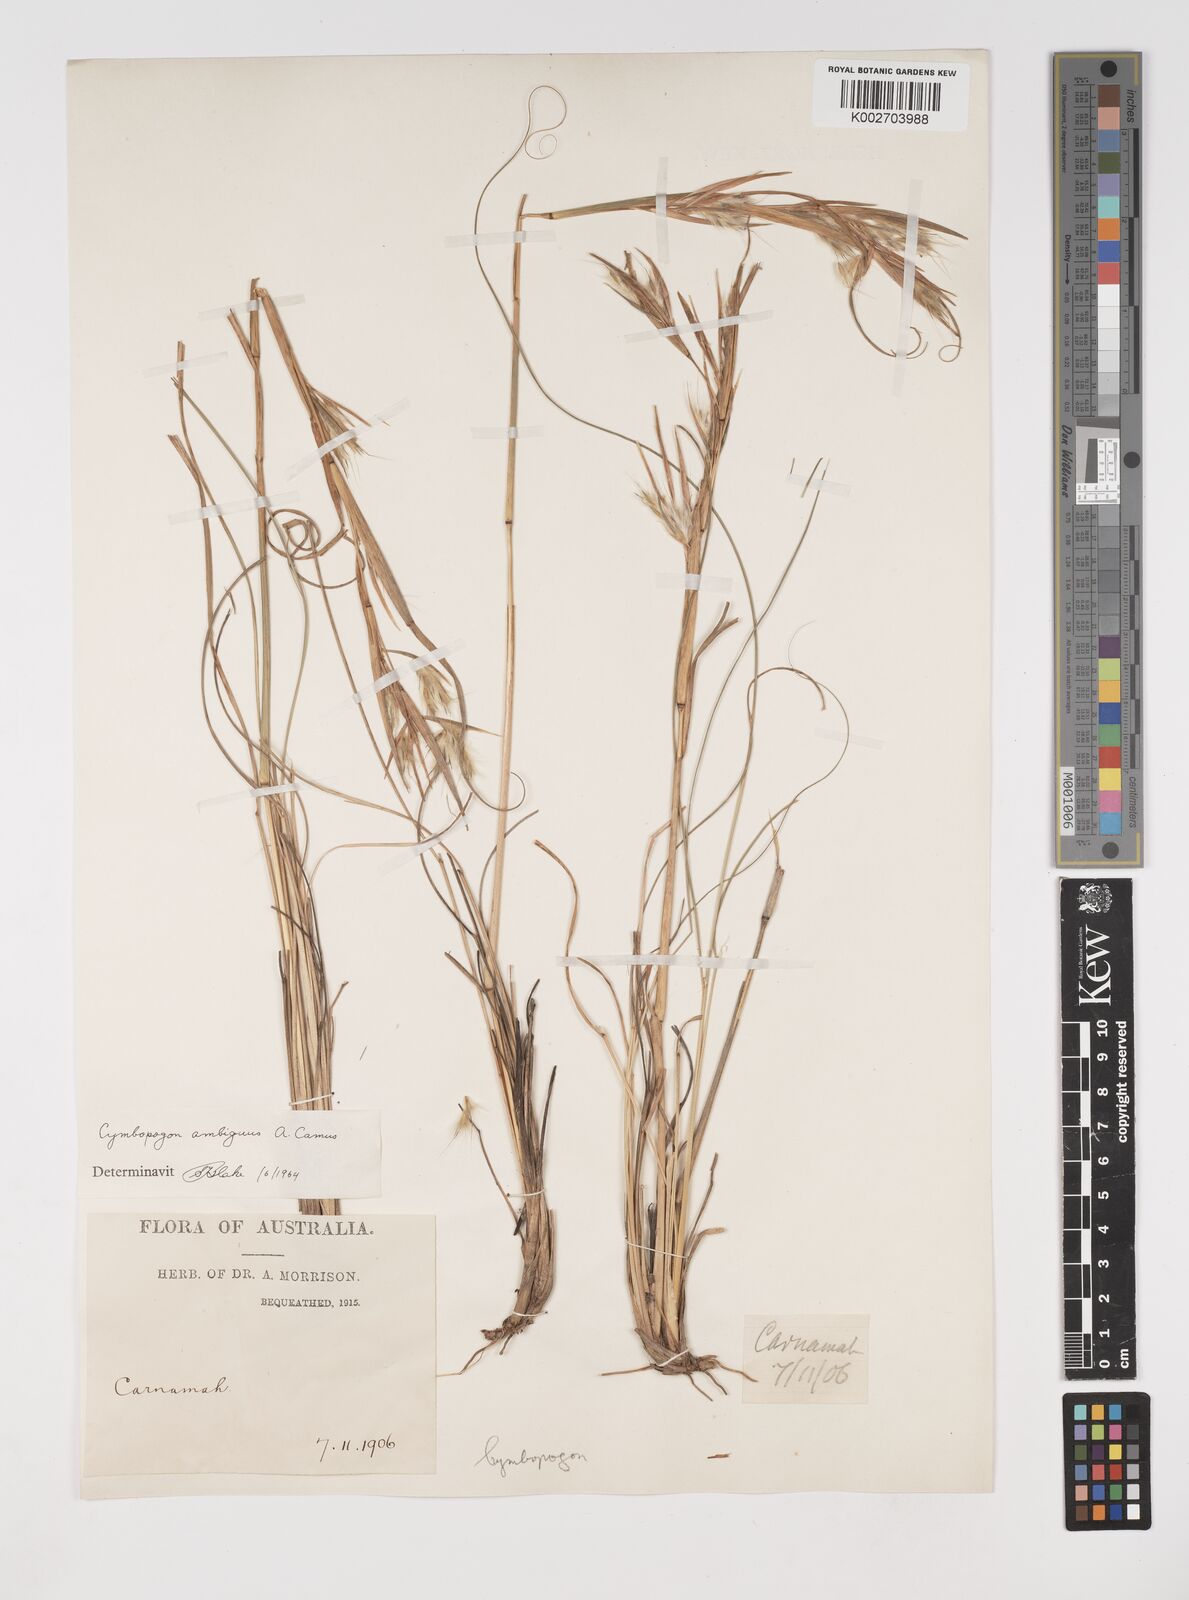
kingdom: Plantae
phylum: Tracheophyta
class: Liliopsida
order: Poales
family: Poaceae
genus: Cymbopogon
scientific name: Cymbopogon ambiguus
